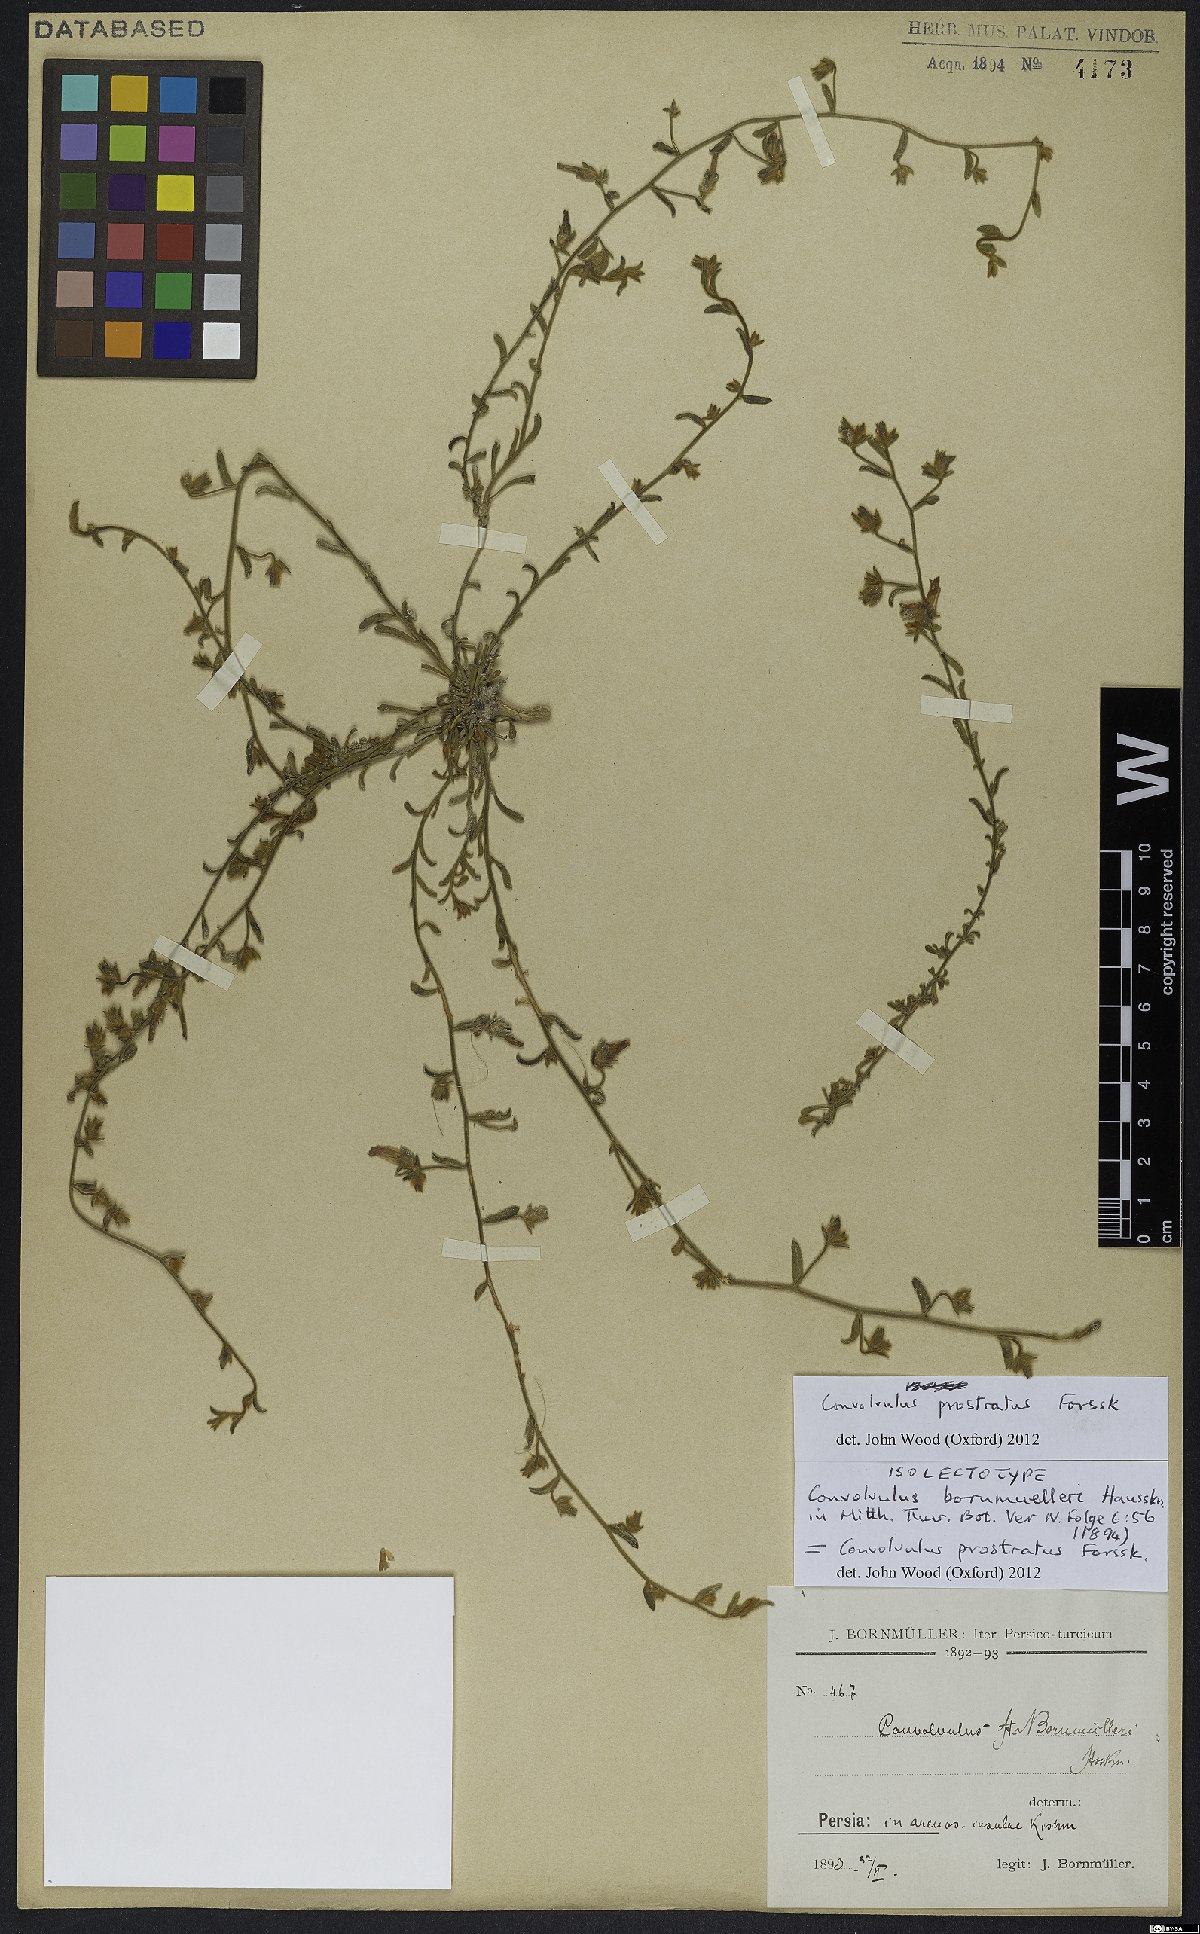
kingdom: Plantae
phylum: Tracheophyta
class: Magnoliopsida
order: Solanales
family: Convolvulaceae
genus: Convolvulus
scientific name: Convolvulus prostratus
